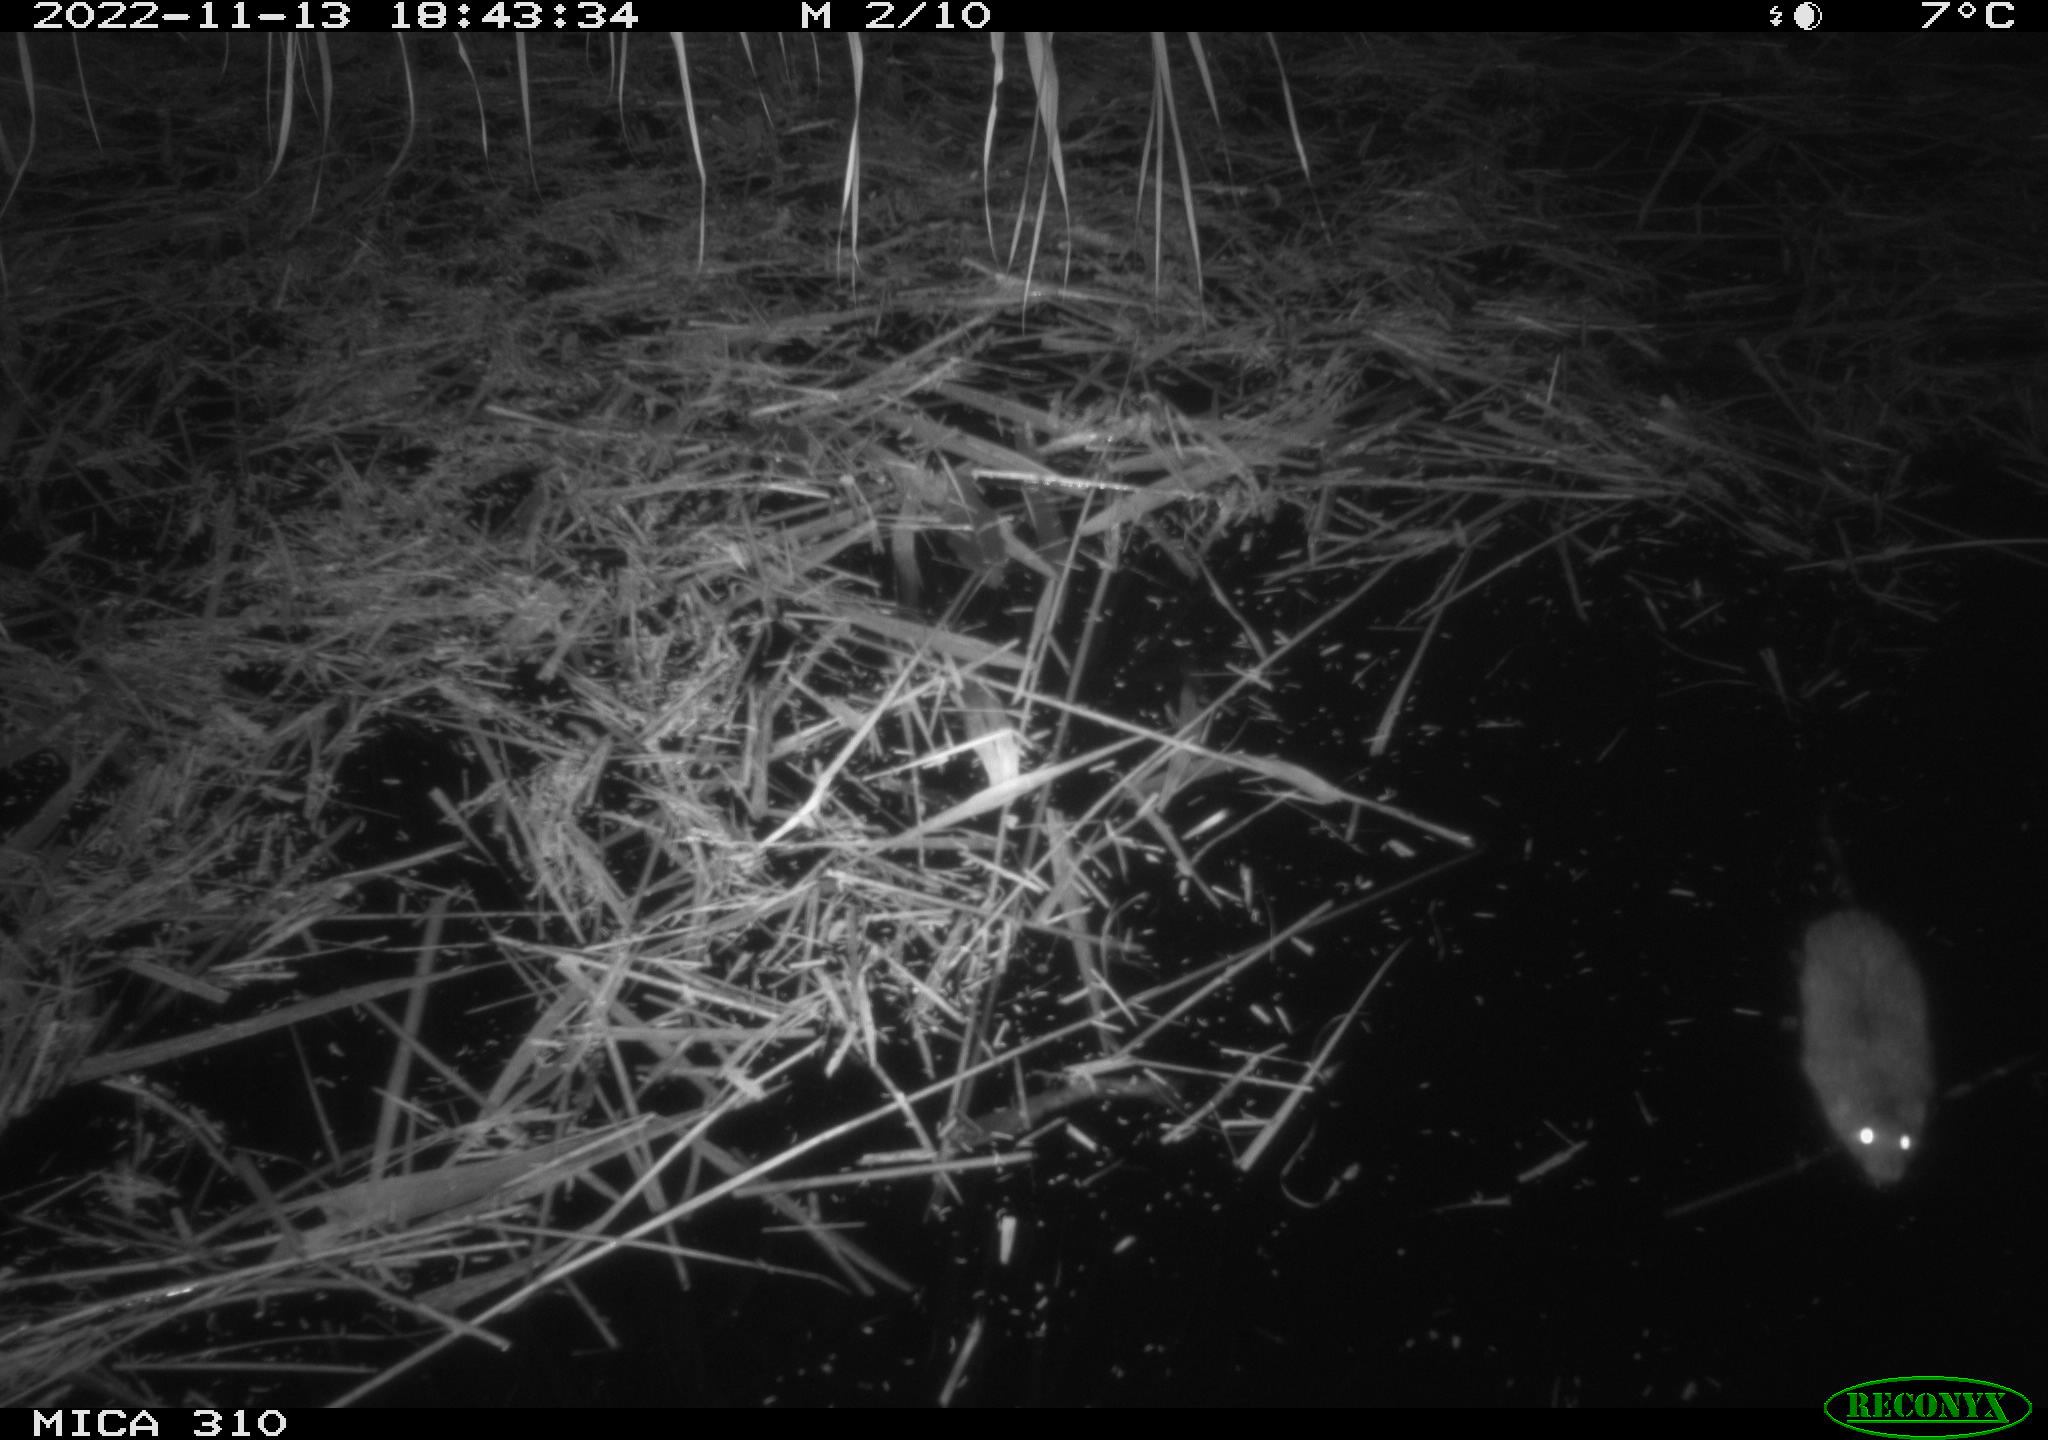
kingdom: Animalia
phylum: Chordata
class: Mammalia
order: Rodentia
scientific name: Rodentia
